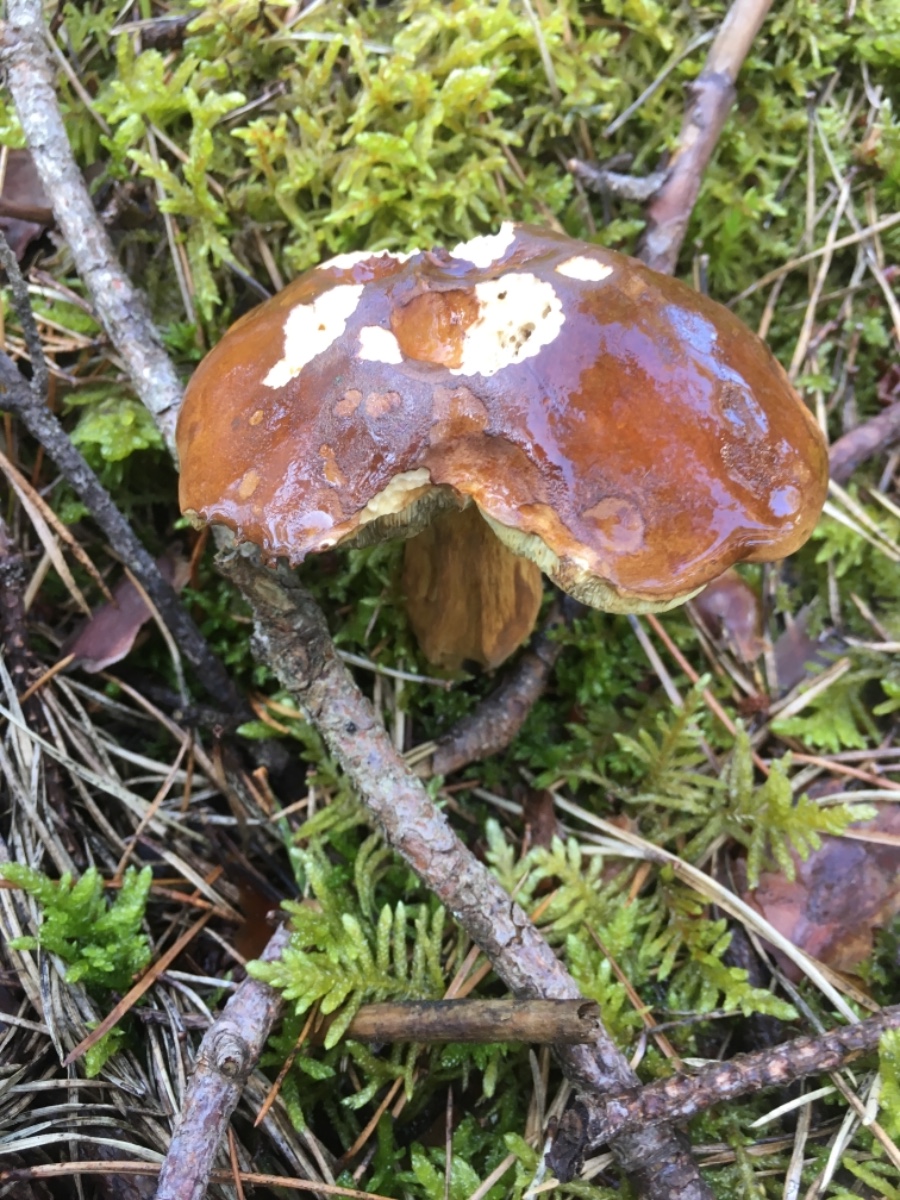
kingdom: Fungi
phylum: Basidiomycota
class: Agaricomycetes
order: Boletales
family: Boletaceae
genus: Imleria
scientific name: Imleria badia
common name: brunstokket rørhat
